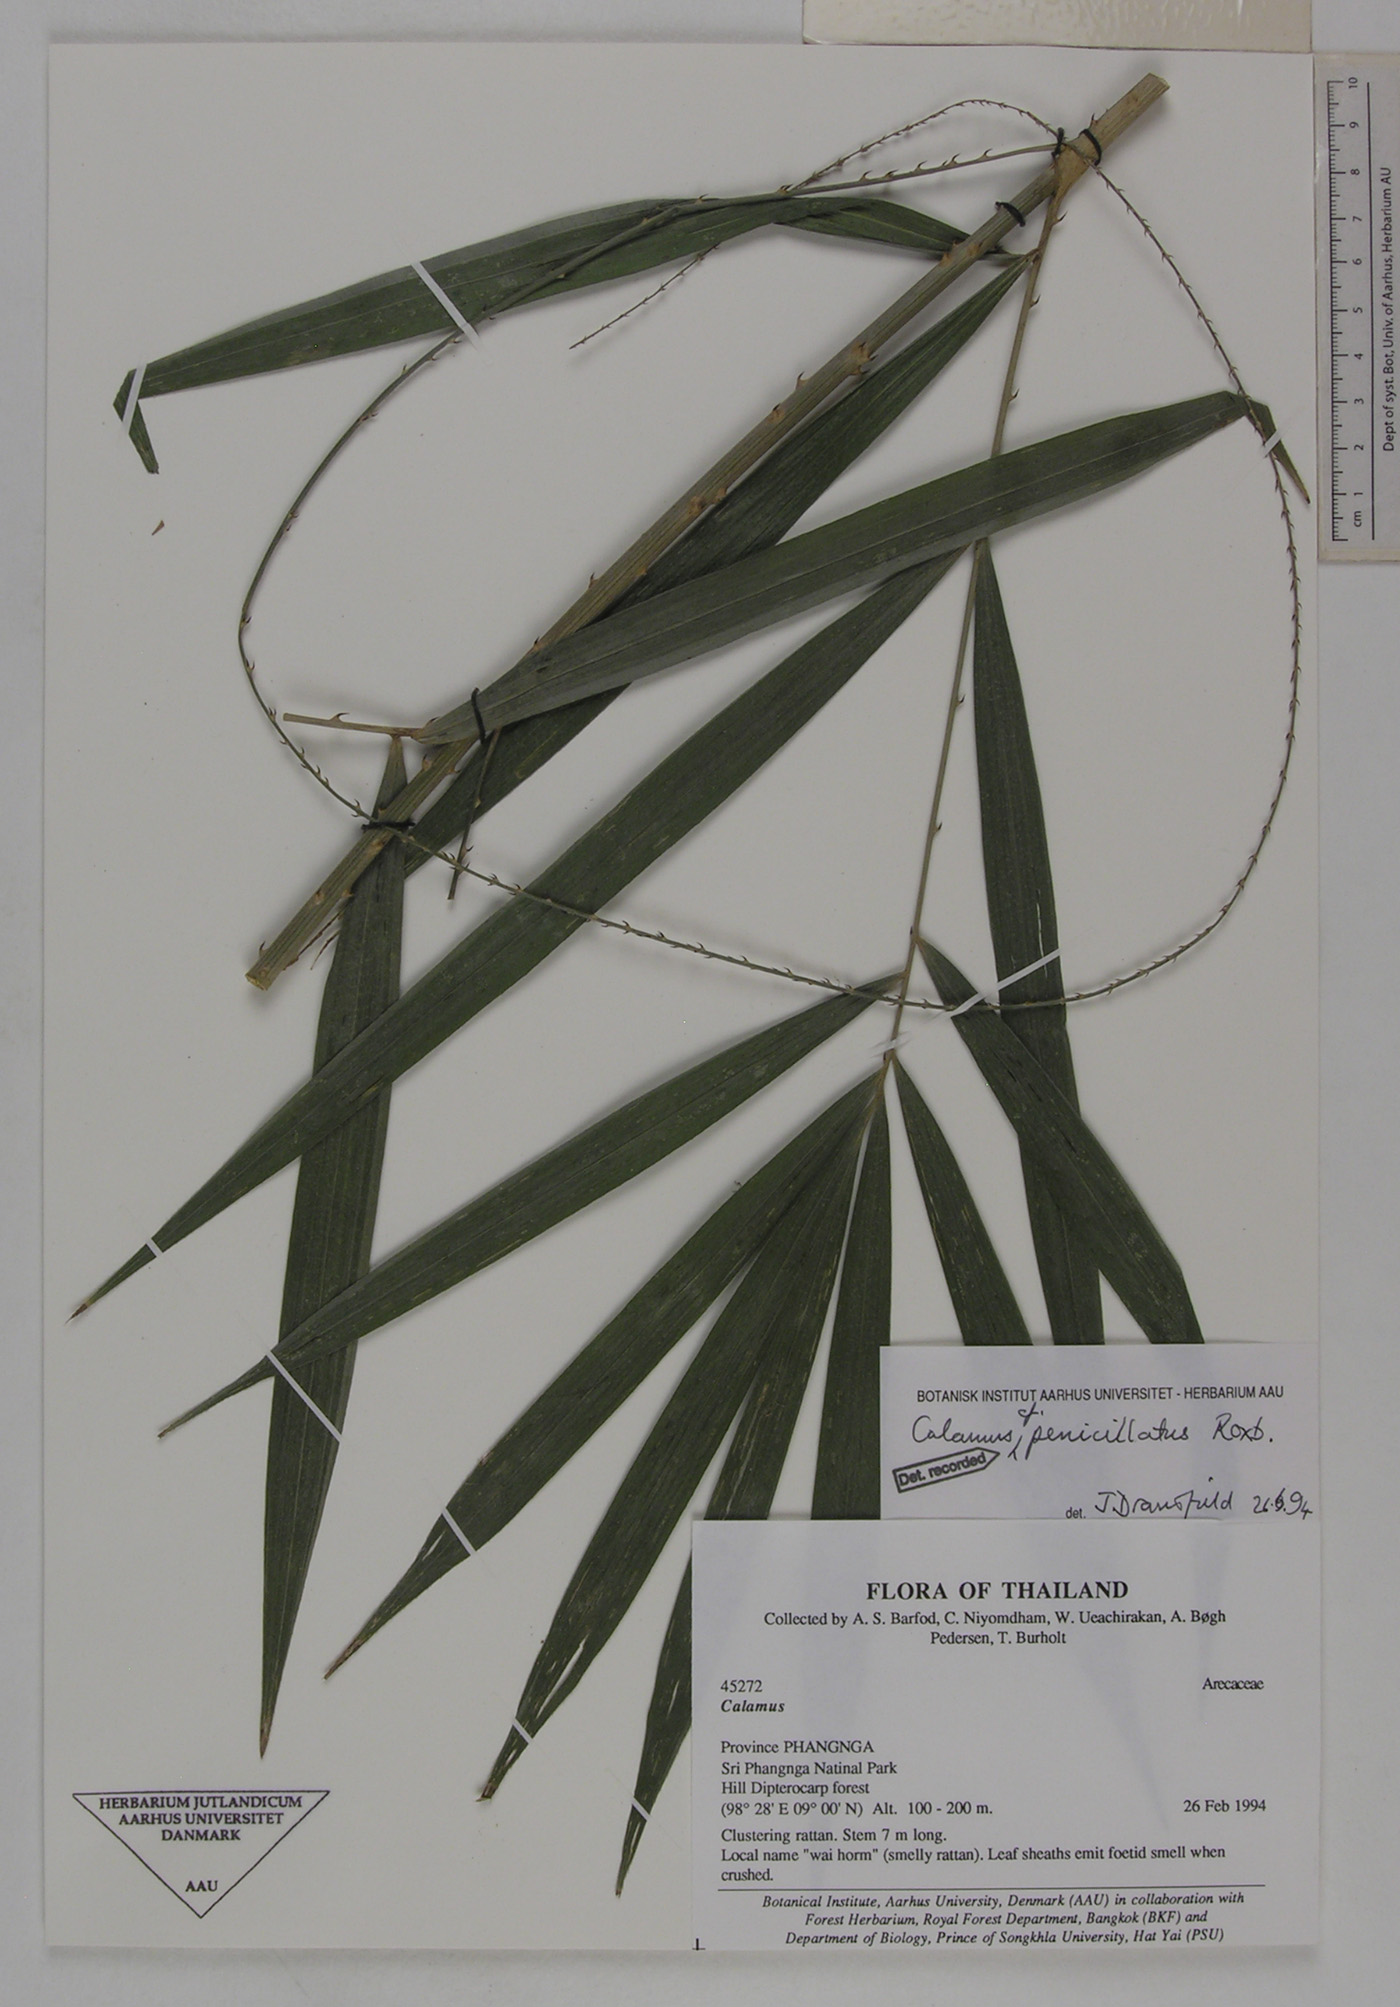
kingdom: Plantae
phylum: Tracheophyta
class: Liliopsida
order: Arecales
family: Arecaceae
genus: Calamus
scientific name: Calamus penicillatus
